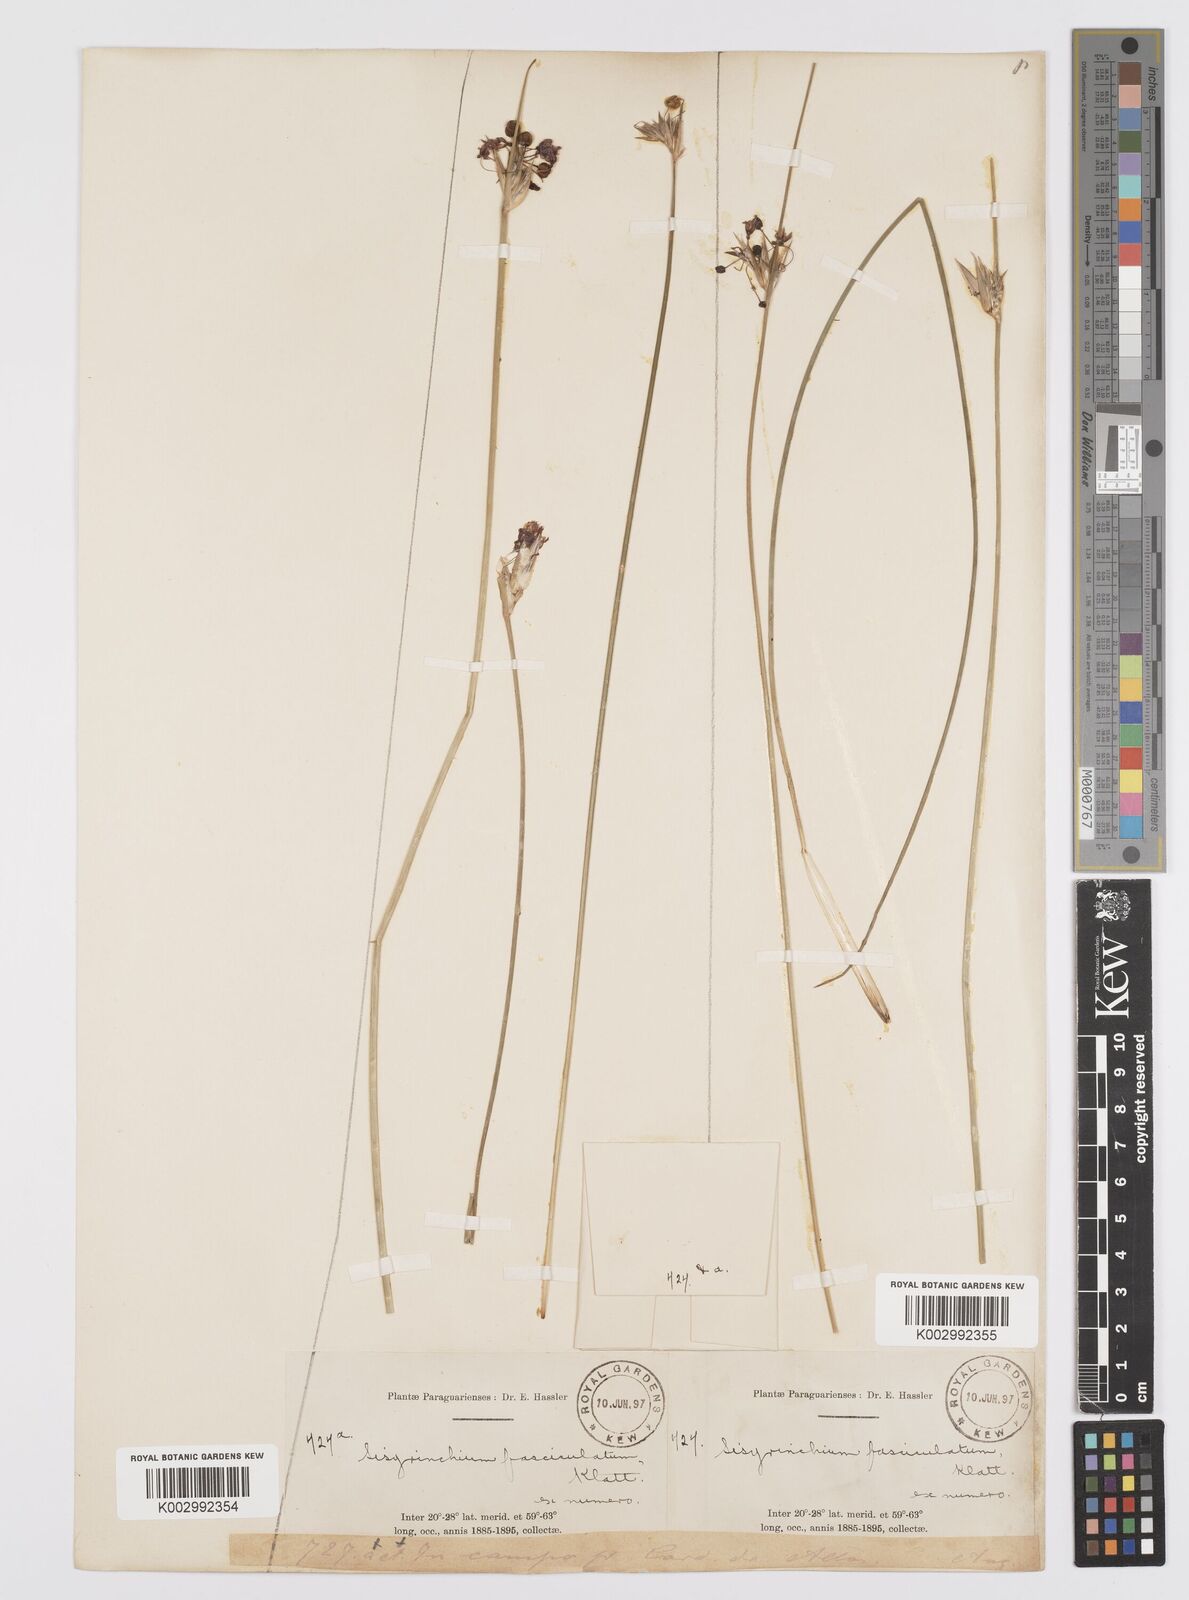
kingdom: Plantae
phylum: Tracheophyta
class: Liliopsida
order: Asparagales
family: Iridaceae
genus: Sisyrinchium
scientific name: Sisyrinchium fasciculatum
